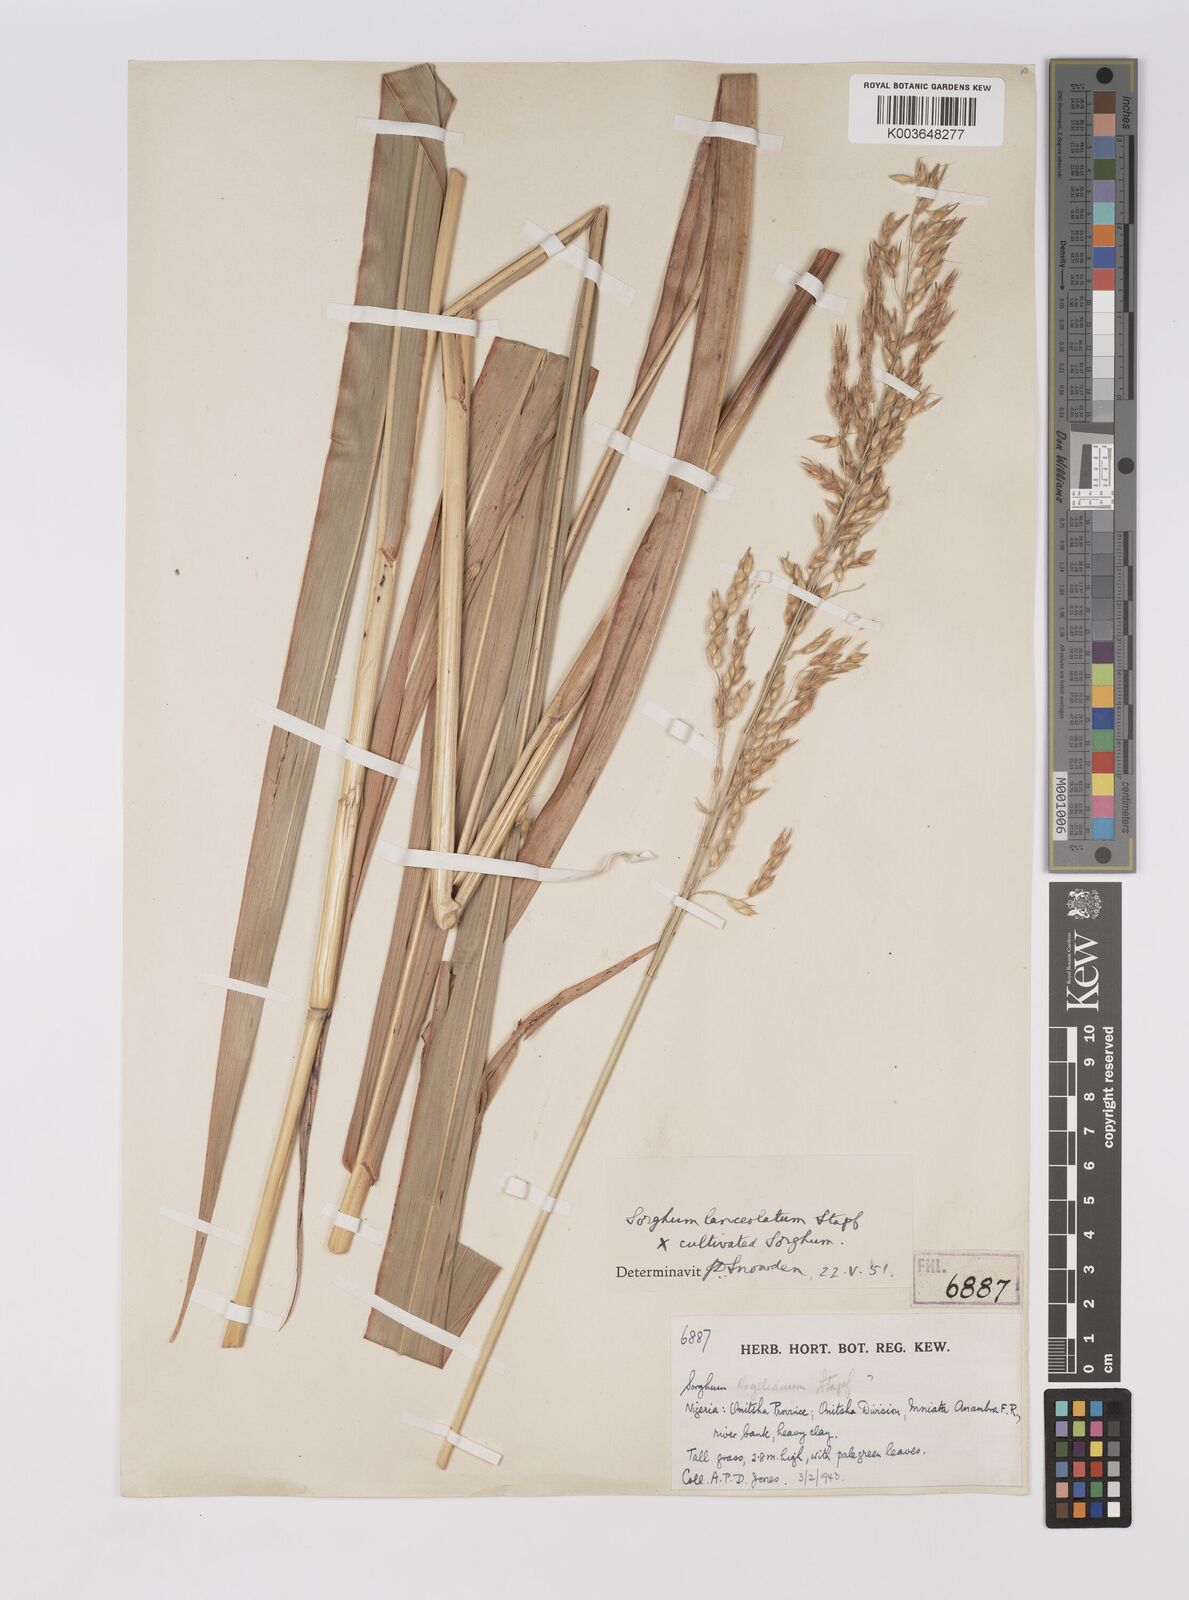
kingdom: Plantae
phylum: Tracheophyta
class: Liliopsida
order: Poales
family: Poaceae
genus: Sorghum
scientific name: Sorghum drummondii
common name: Sudangrass
